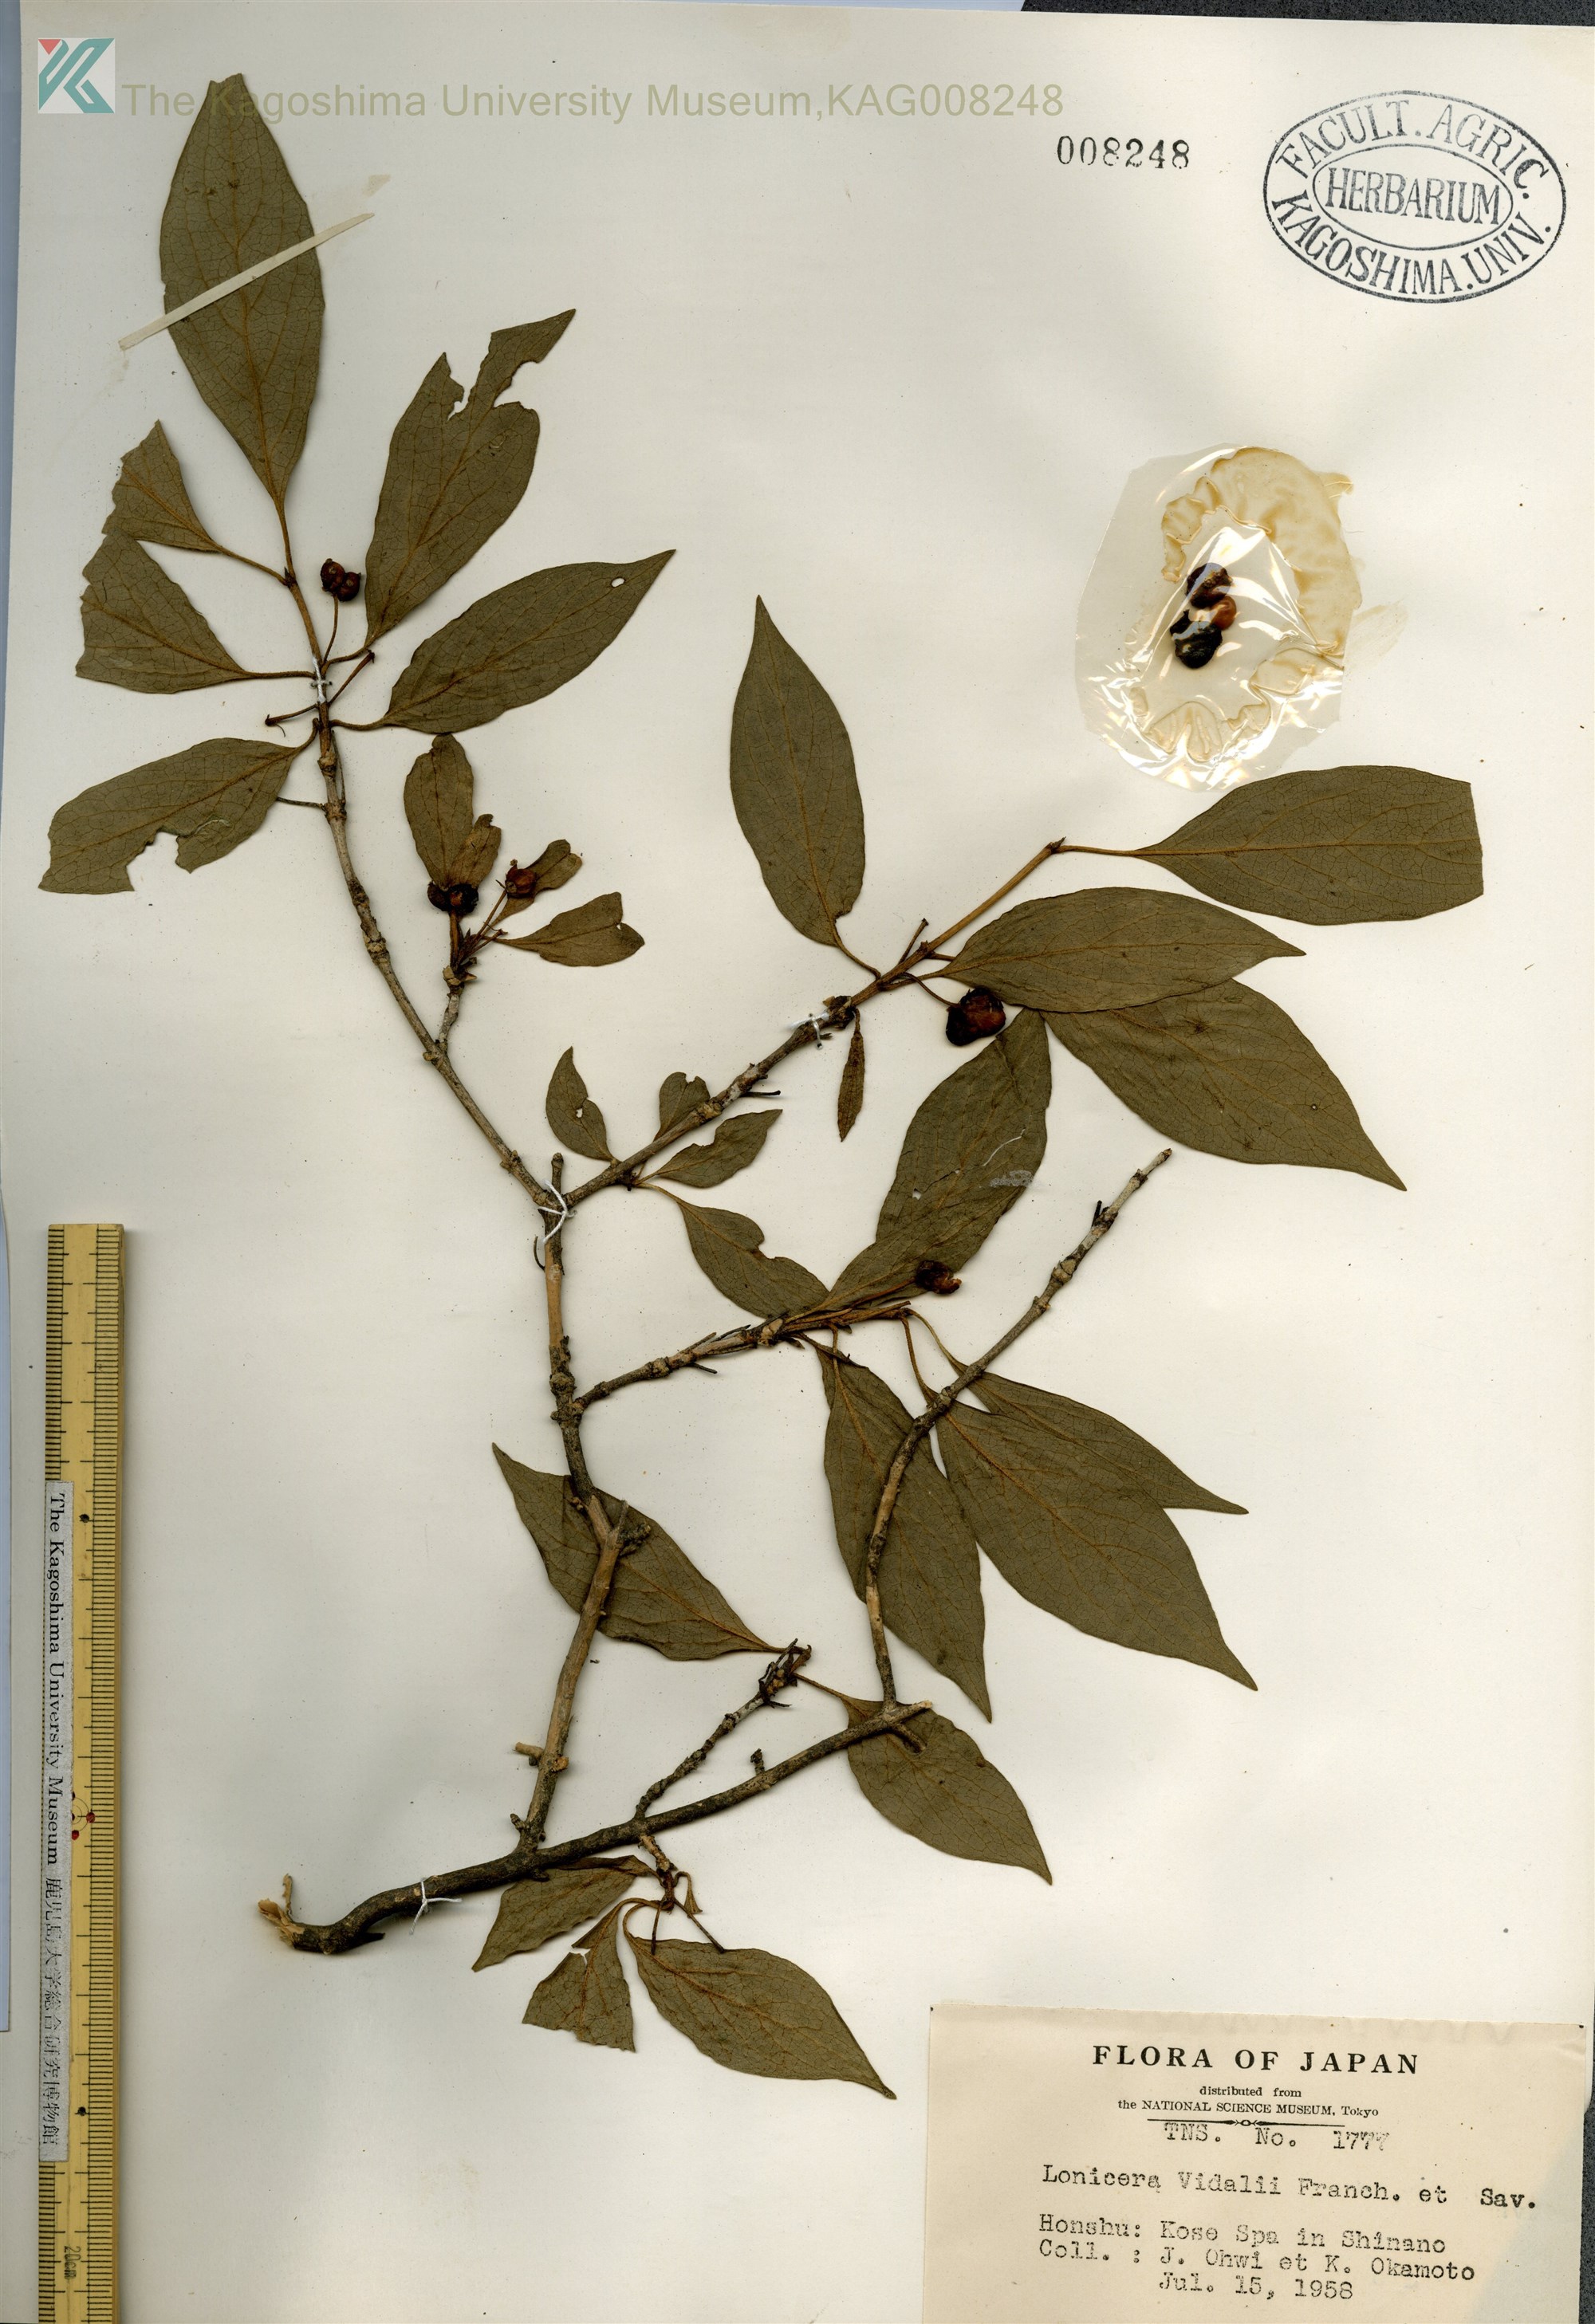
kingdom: Plantae
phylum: Tracheophyta
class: Magnoliopsida
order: Dipsacales
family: Caprifoliaceae
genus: Lonicera
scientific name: Lonicera vidalii
